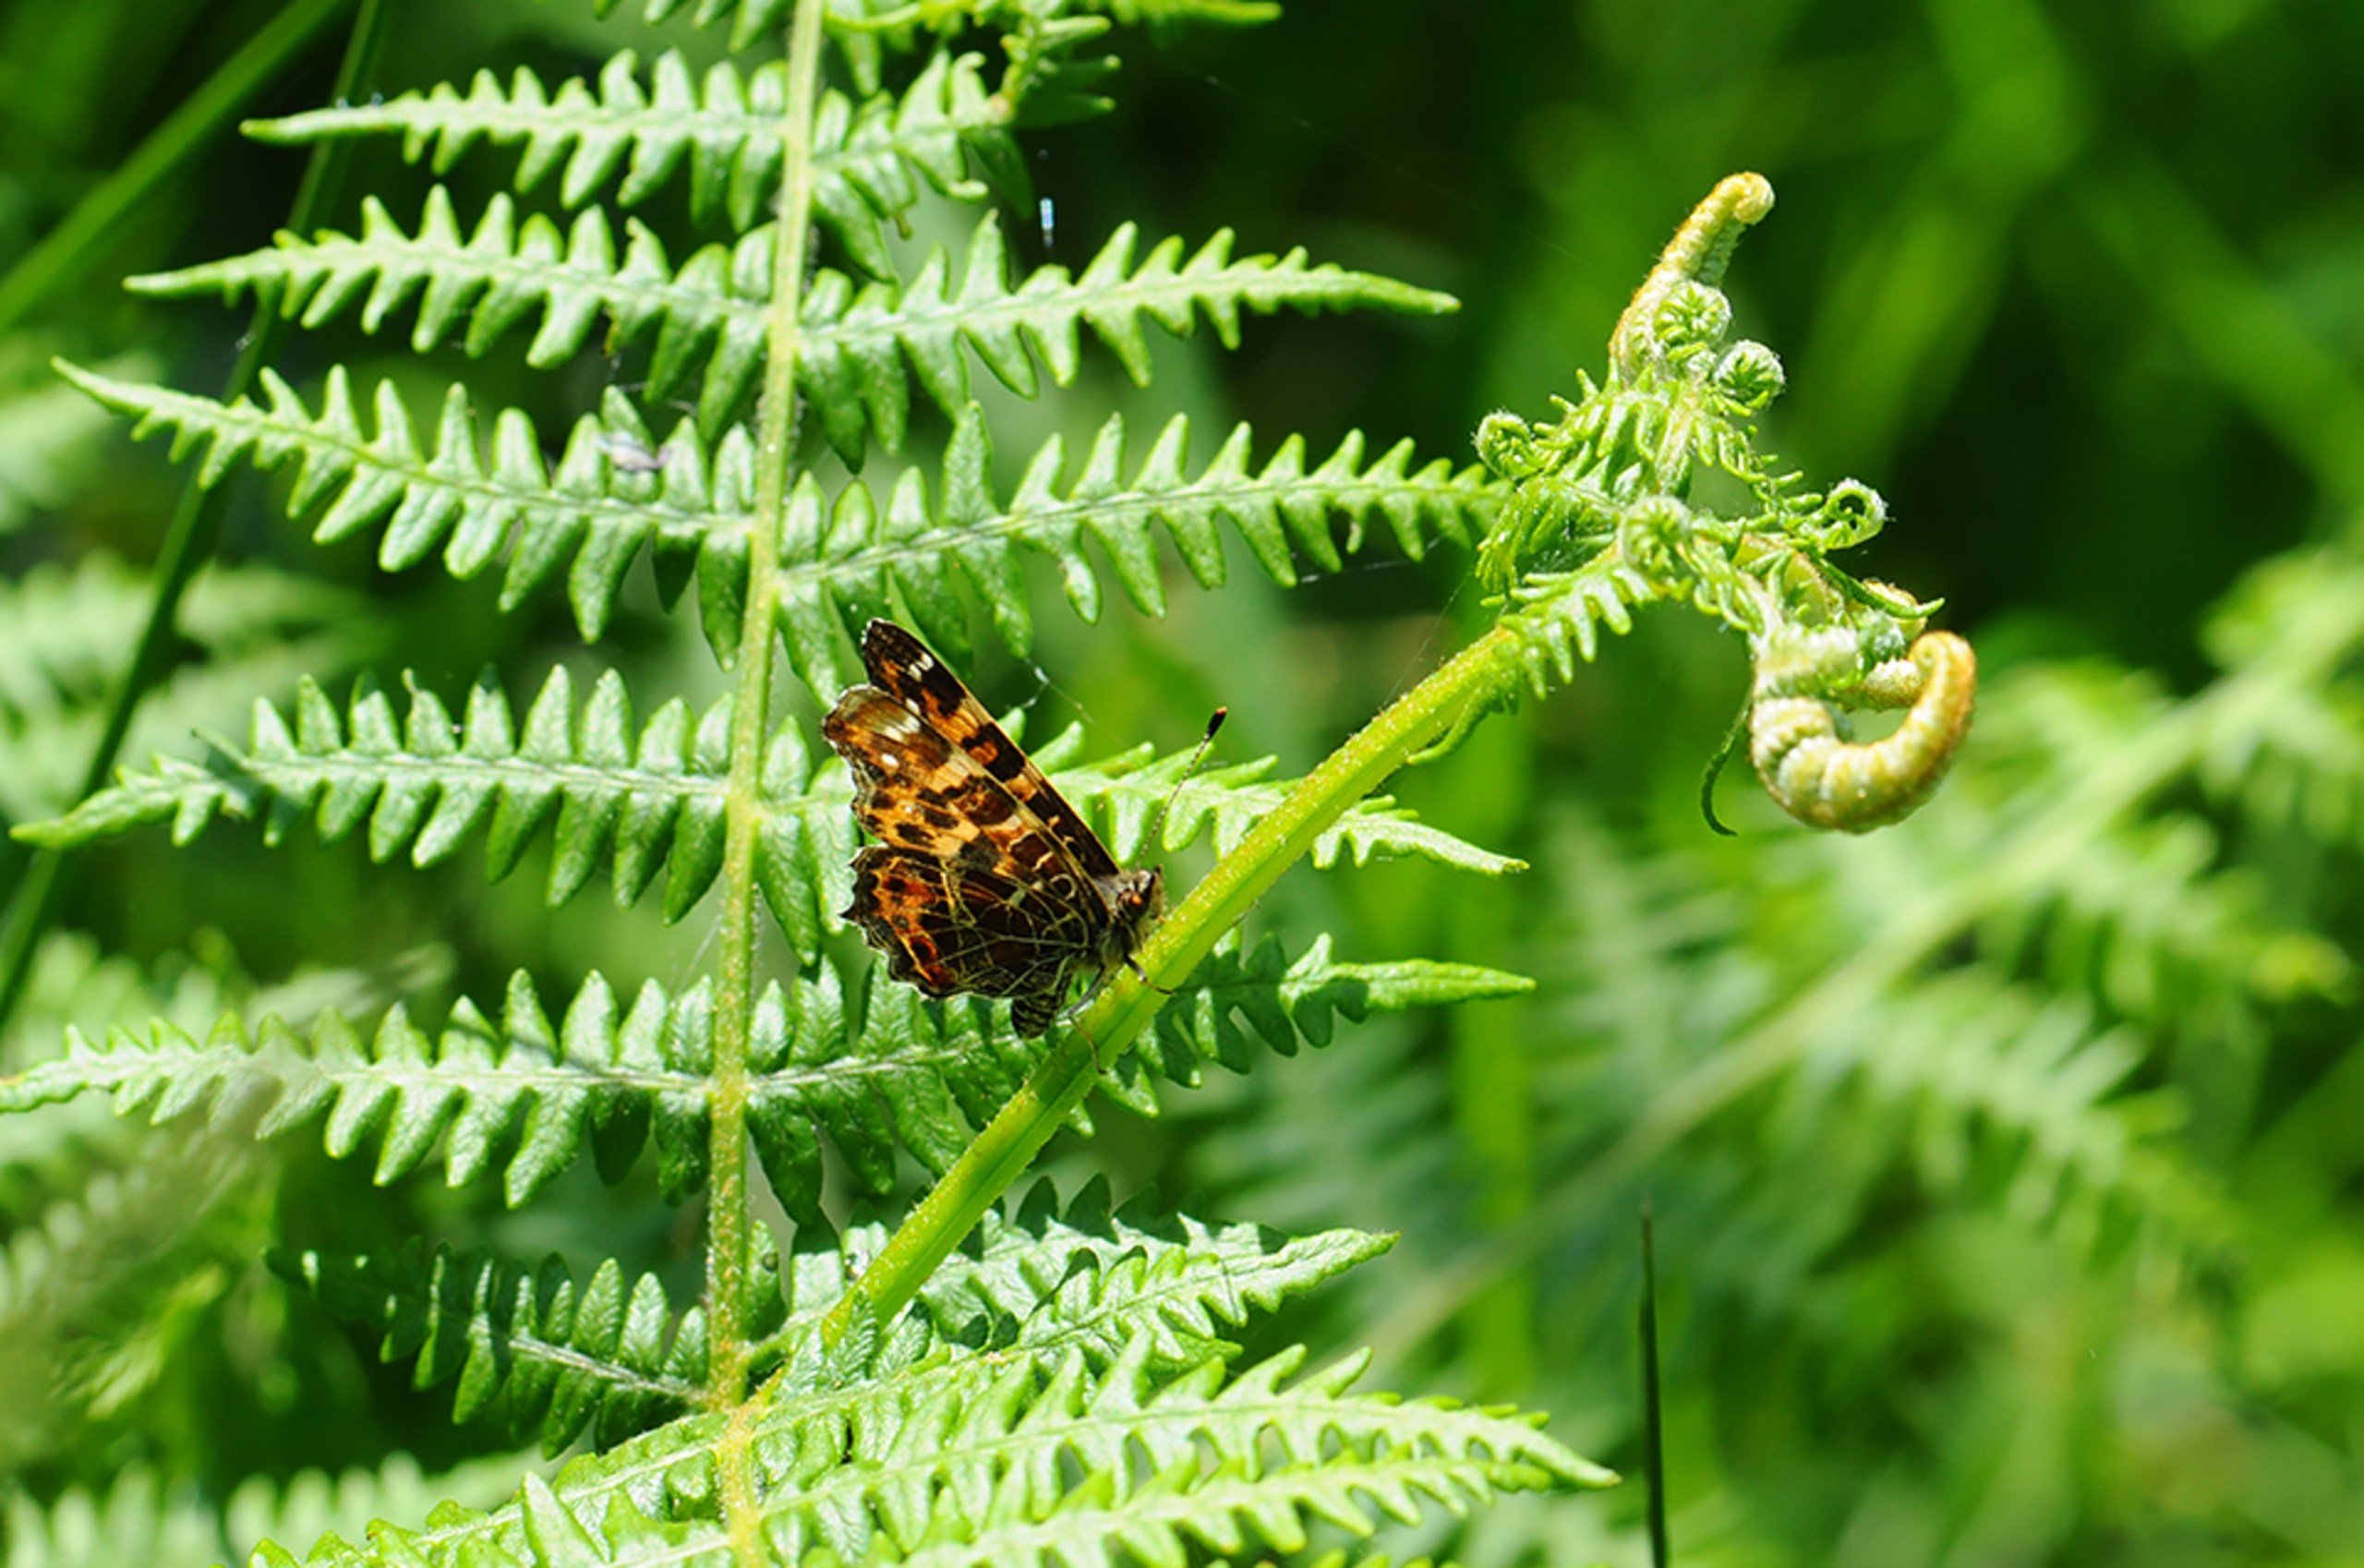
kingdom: Animalia
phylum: Arthropoda
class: Insecta
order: Lepidoptera
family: Nymphalidae
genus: Araschnia
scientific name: Araschnia levana
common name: Nældesommerfugl
